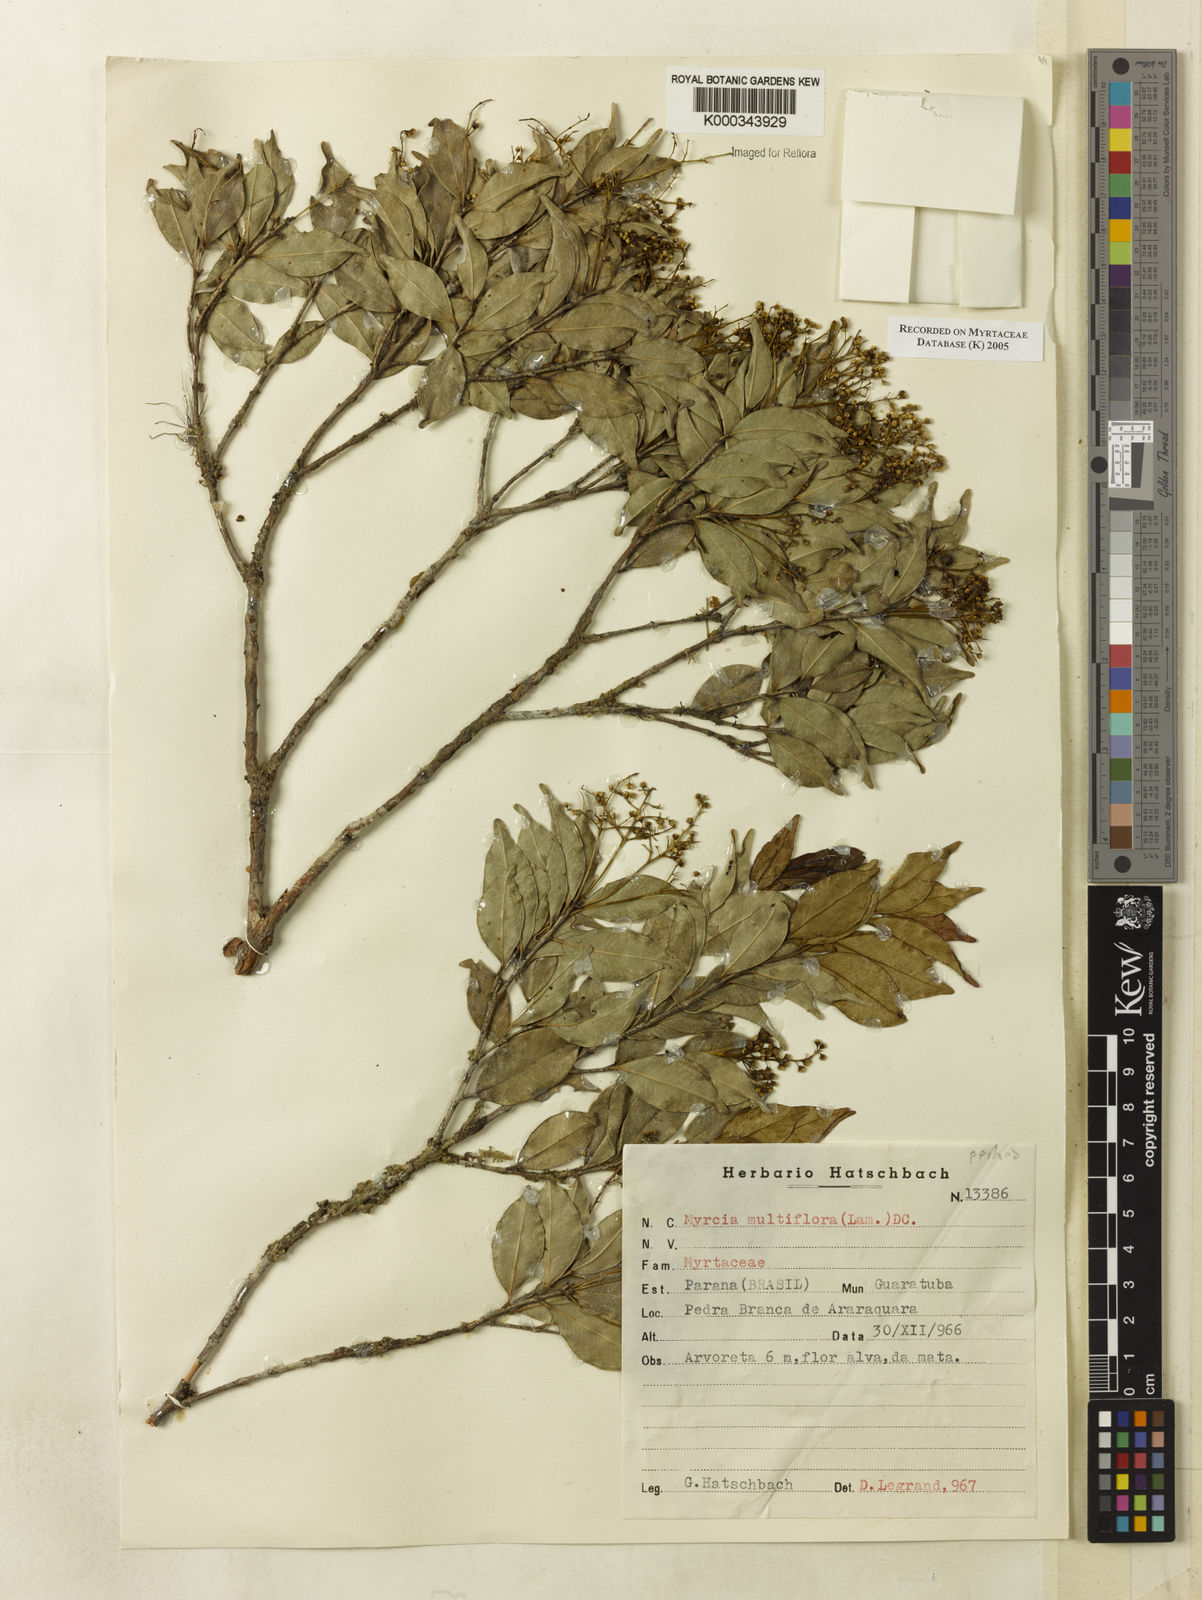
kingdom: Plantae
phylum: Tracheophyta
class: Magnoliopsida
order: Myrtales
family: Myrtaceae
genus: Myrcia
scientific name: Myrcia multiflora
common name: Pedra hume
